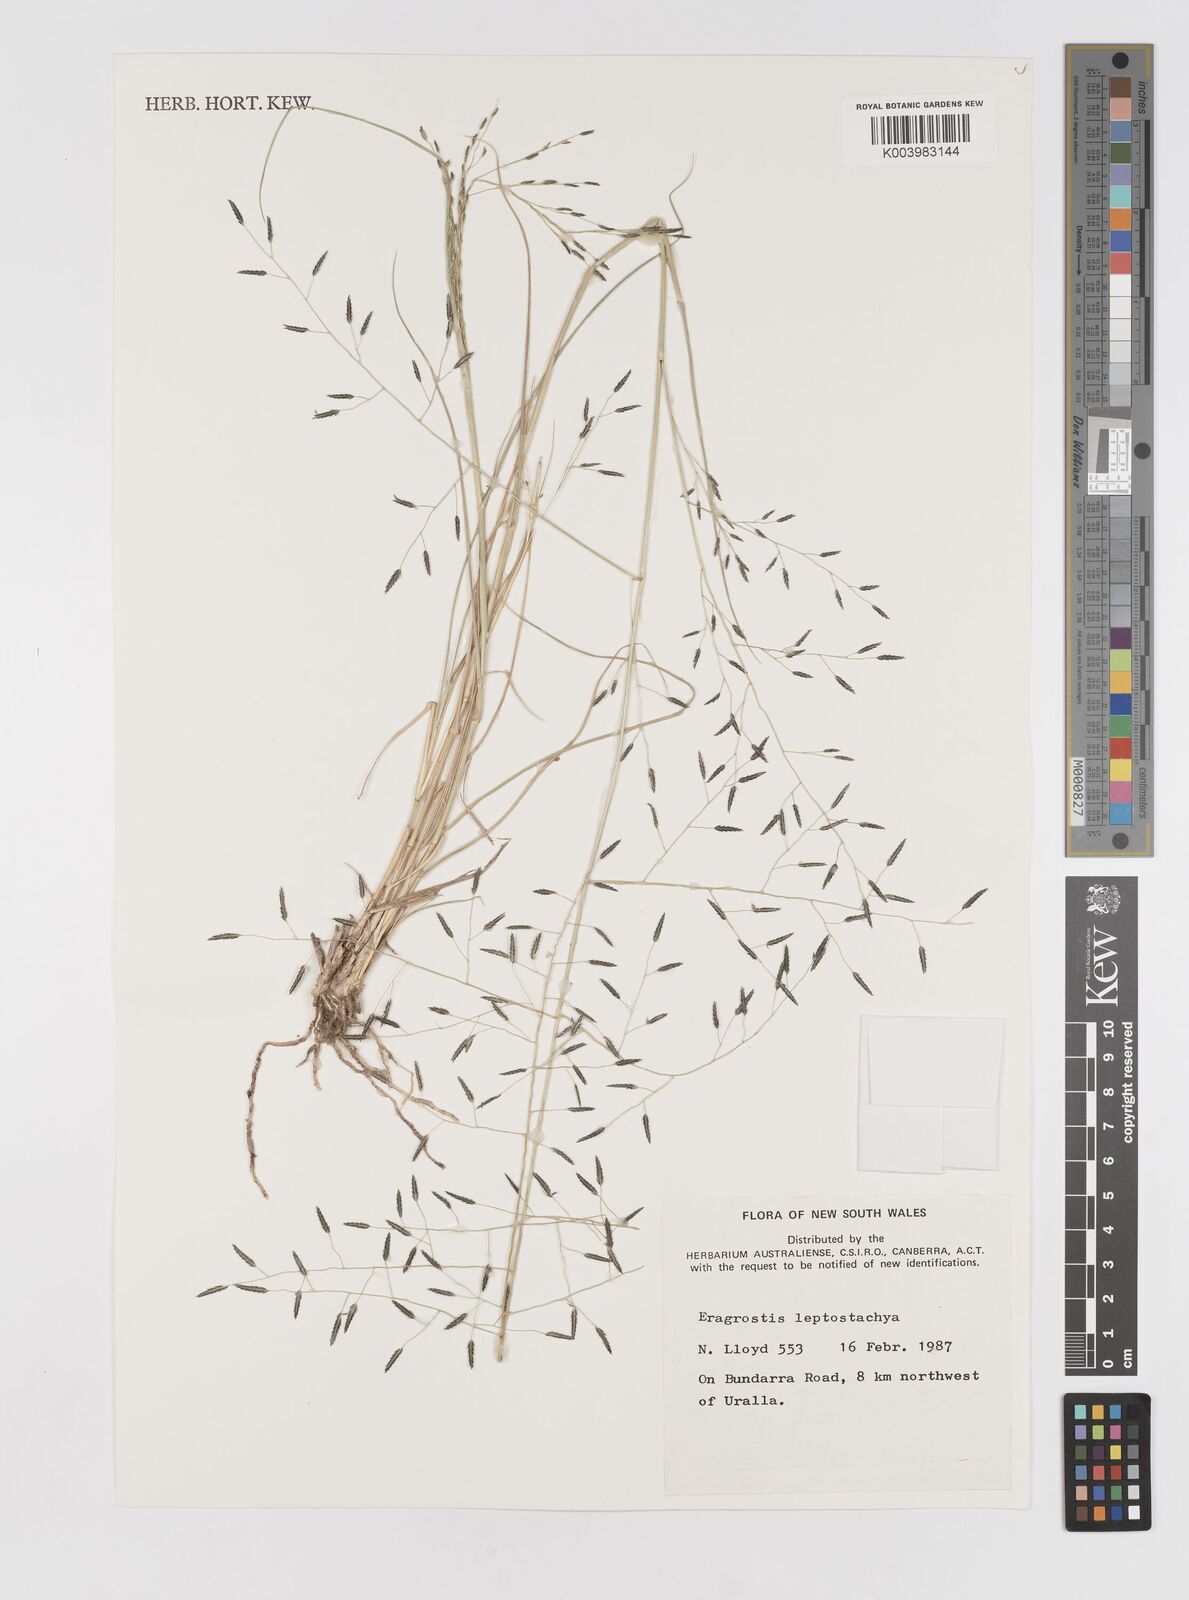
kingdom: Plantae
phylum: Tracheophyta
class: Liliopsida
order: Poales
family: Poaceae
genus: Eragrostis
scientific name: Eragrostis leptostachya
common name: Australian lovegrass
